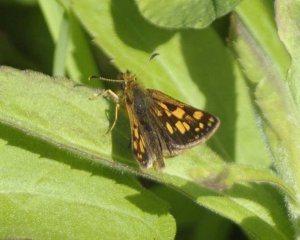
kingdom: Animalia
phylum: Arthropoda
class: Insecta
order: Lepidoptera
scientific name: Lepidoptera
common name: Butterflies
